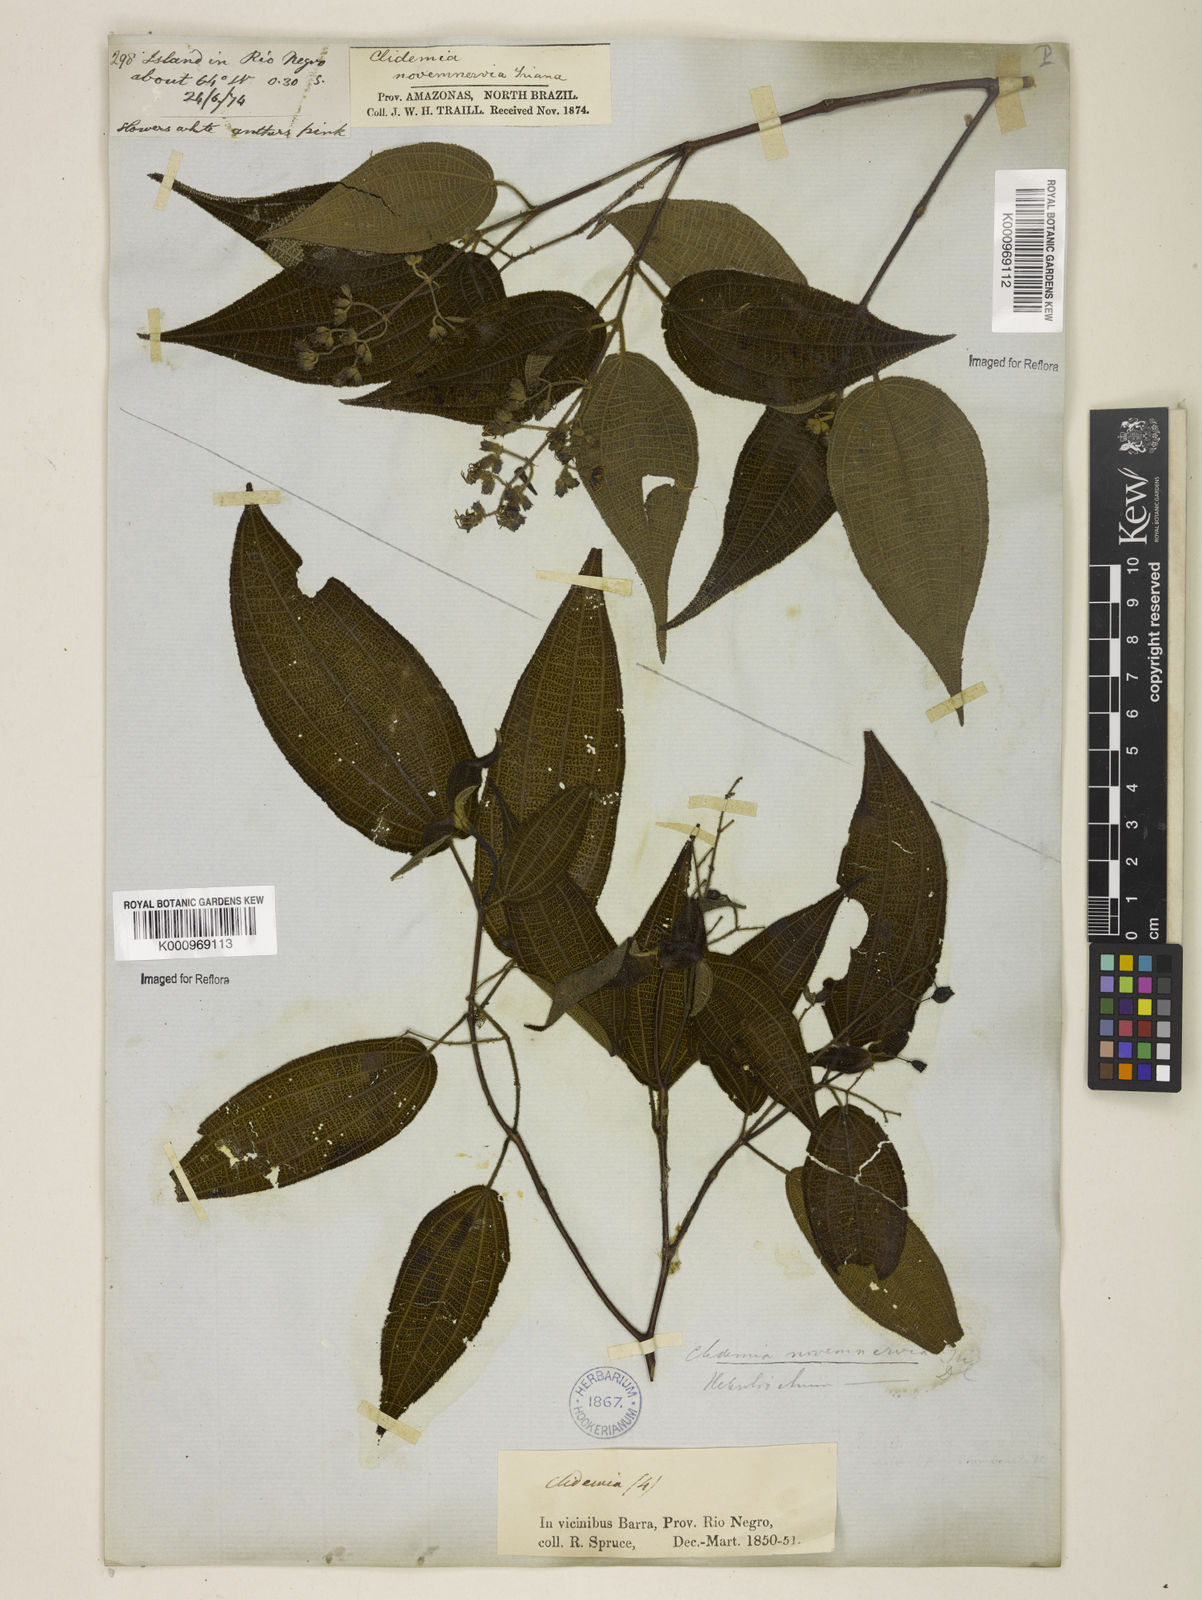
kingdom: Plantae
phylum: Tracheophyta
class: Magnoliopsida
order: Myrtales
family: Melastomataceae
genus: Miconia
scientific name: Miconia fenestrata
